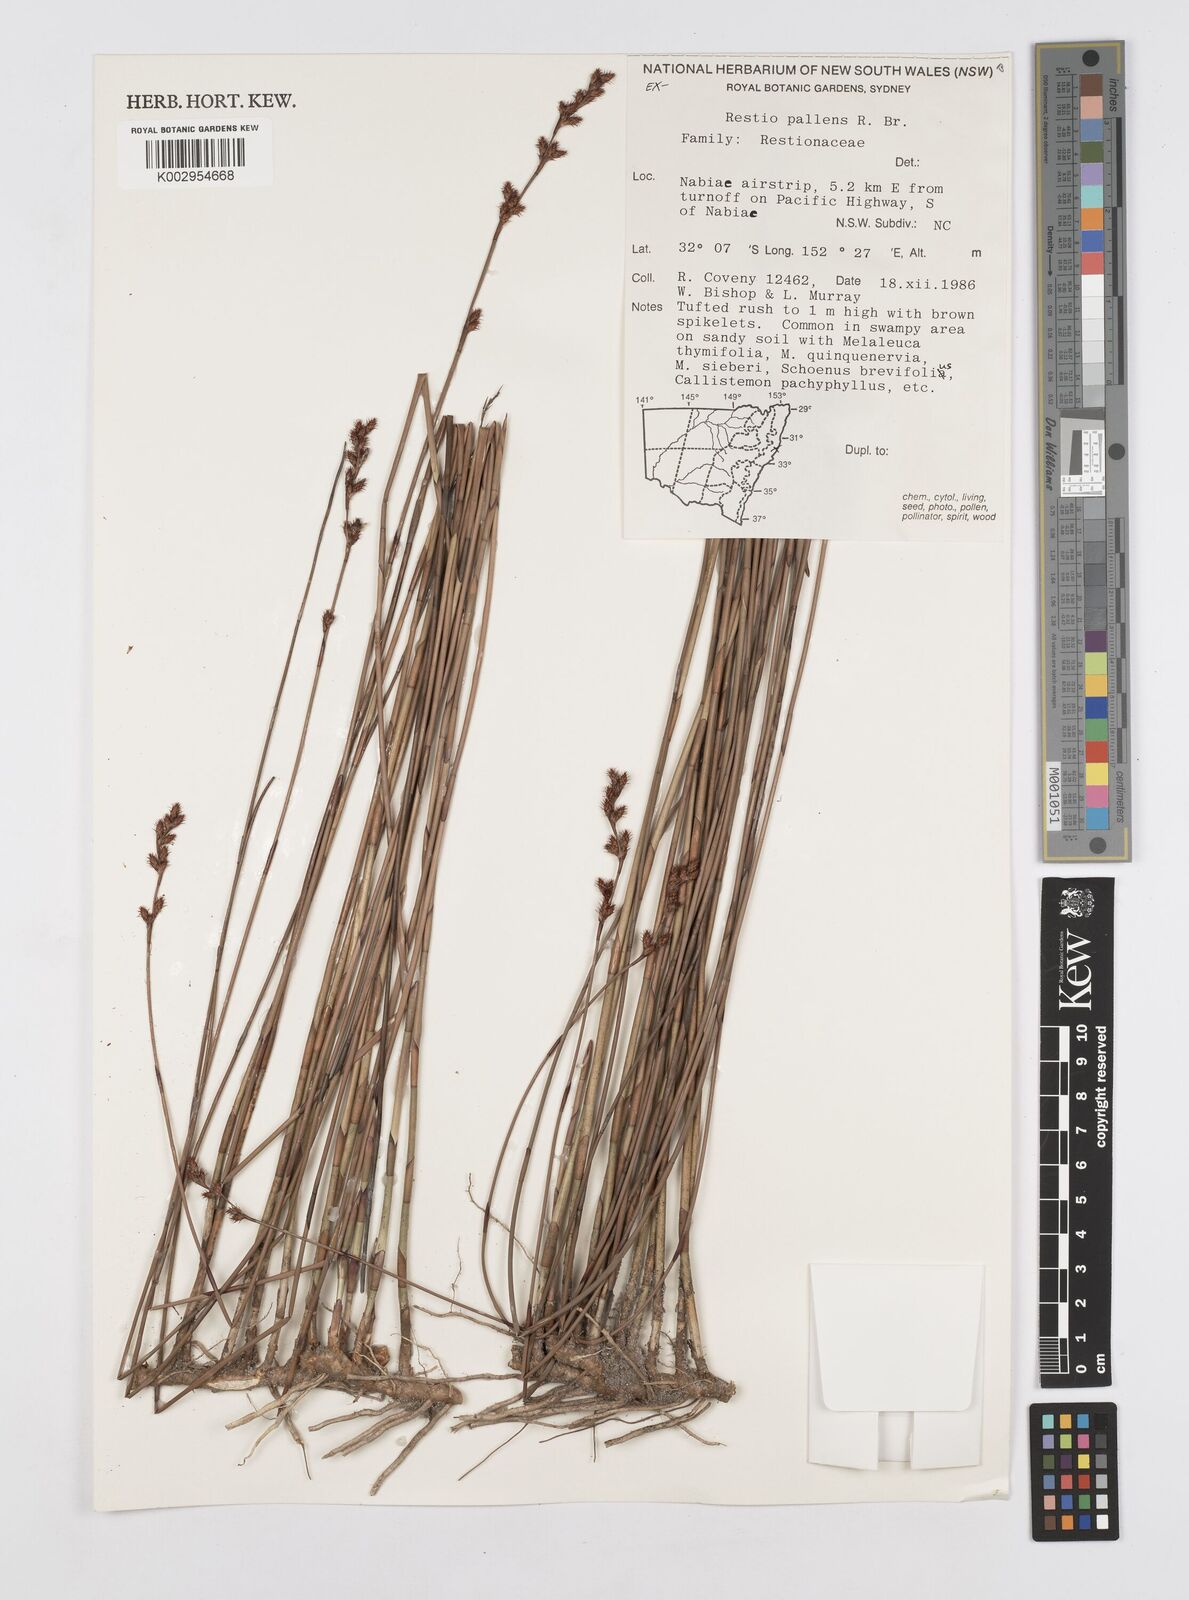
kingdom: Plantae
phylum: Tracheophyta
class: Liliopsida
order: Poales
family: Restionaceae
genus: Baloskion
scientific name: Baloskion pallens
